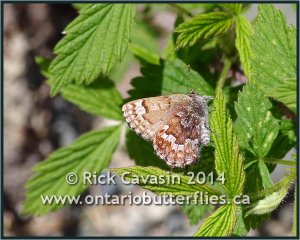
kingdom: Animalia
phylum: Arthropoda
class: Insecta
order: Lepidoptera
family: Lycaenidae
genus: Incisalia
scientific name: Incisalia niphon
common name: Eastern Pine Elfin
